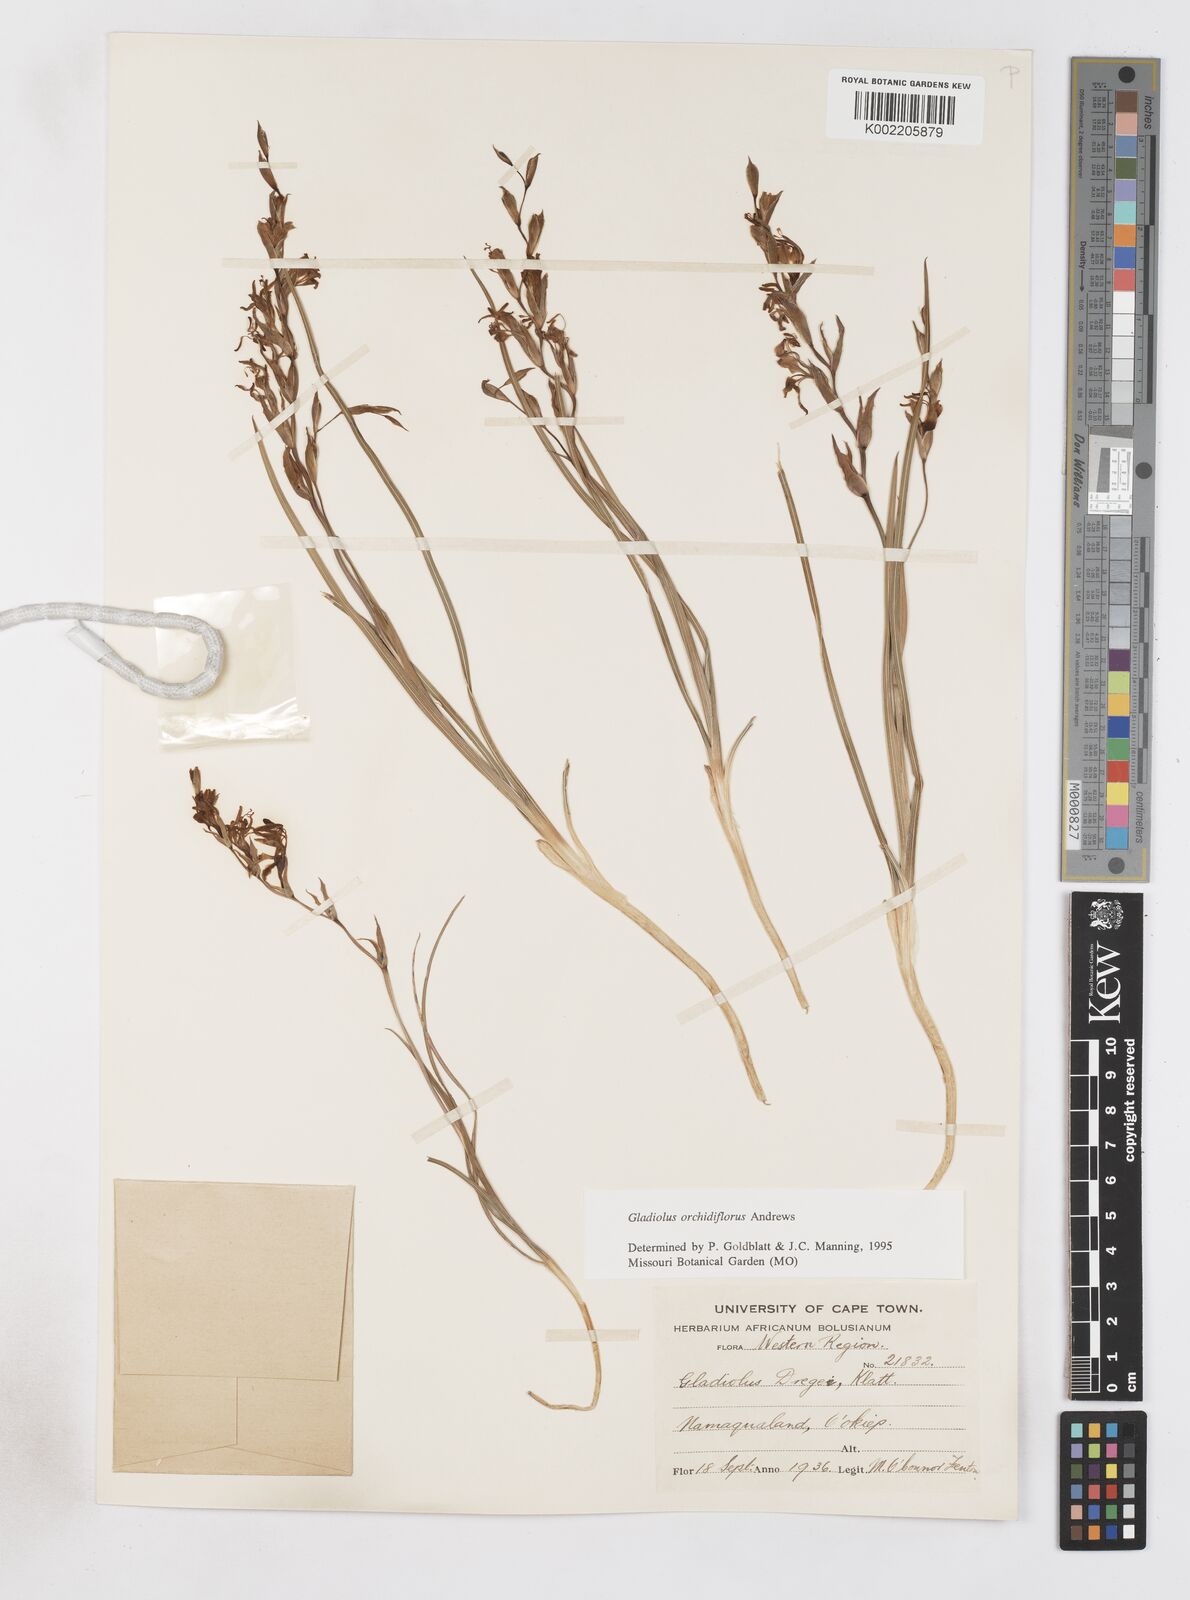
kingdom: Plantae
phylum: Tracheophyta
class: Liliopsida
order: Asparagales
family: Iridaceae
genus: Gladiolus
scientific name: Gladiolus orchidiflorus
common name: Gray kalkoentjie
